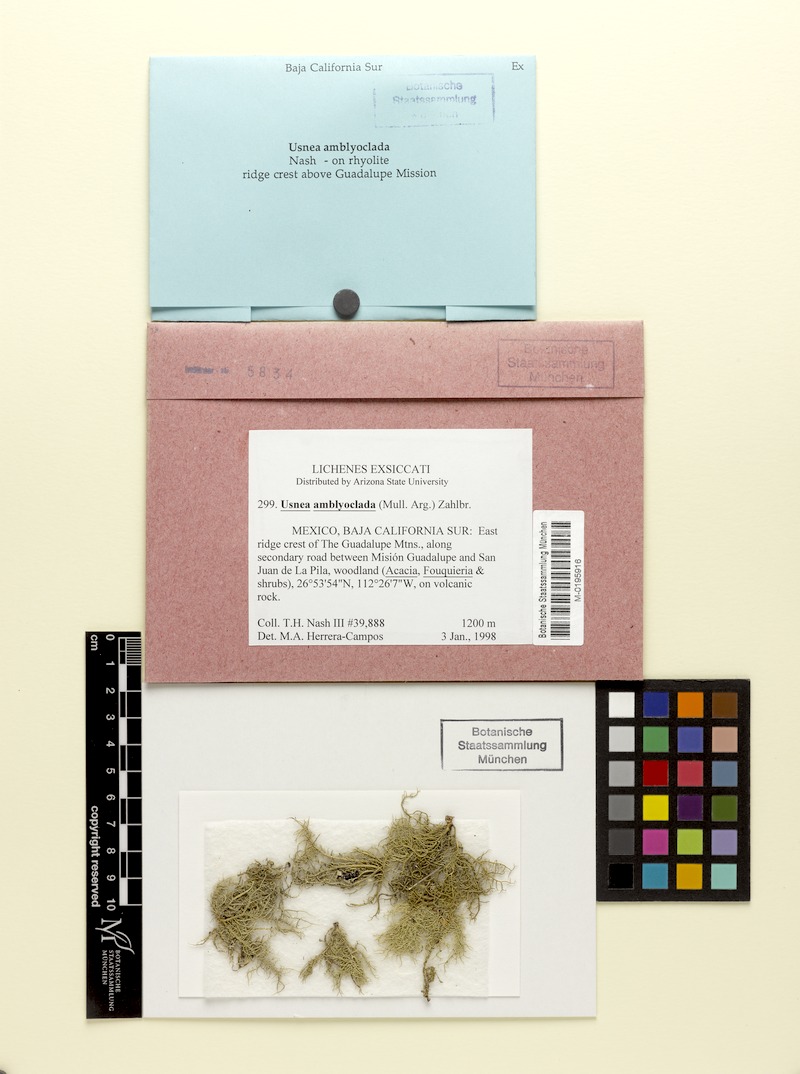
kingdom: Fungi
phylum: Ascomycota
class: Lecanoromycetes
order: Lecanorales
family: Parmeliaceae
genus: Usnea
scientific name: Usnea amblyoclada
